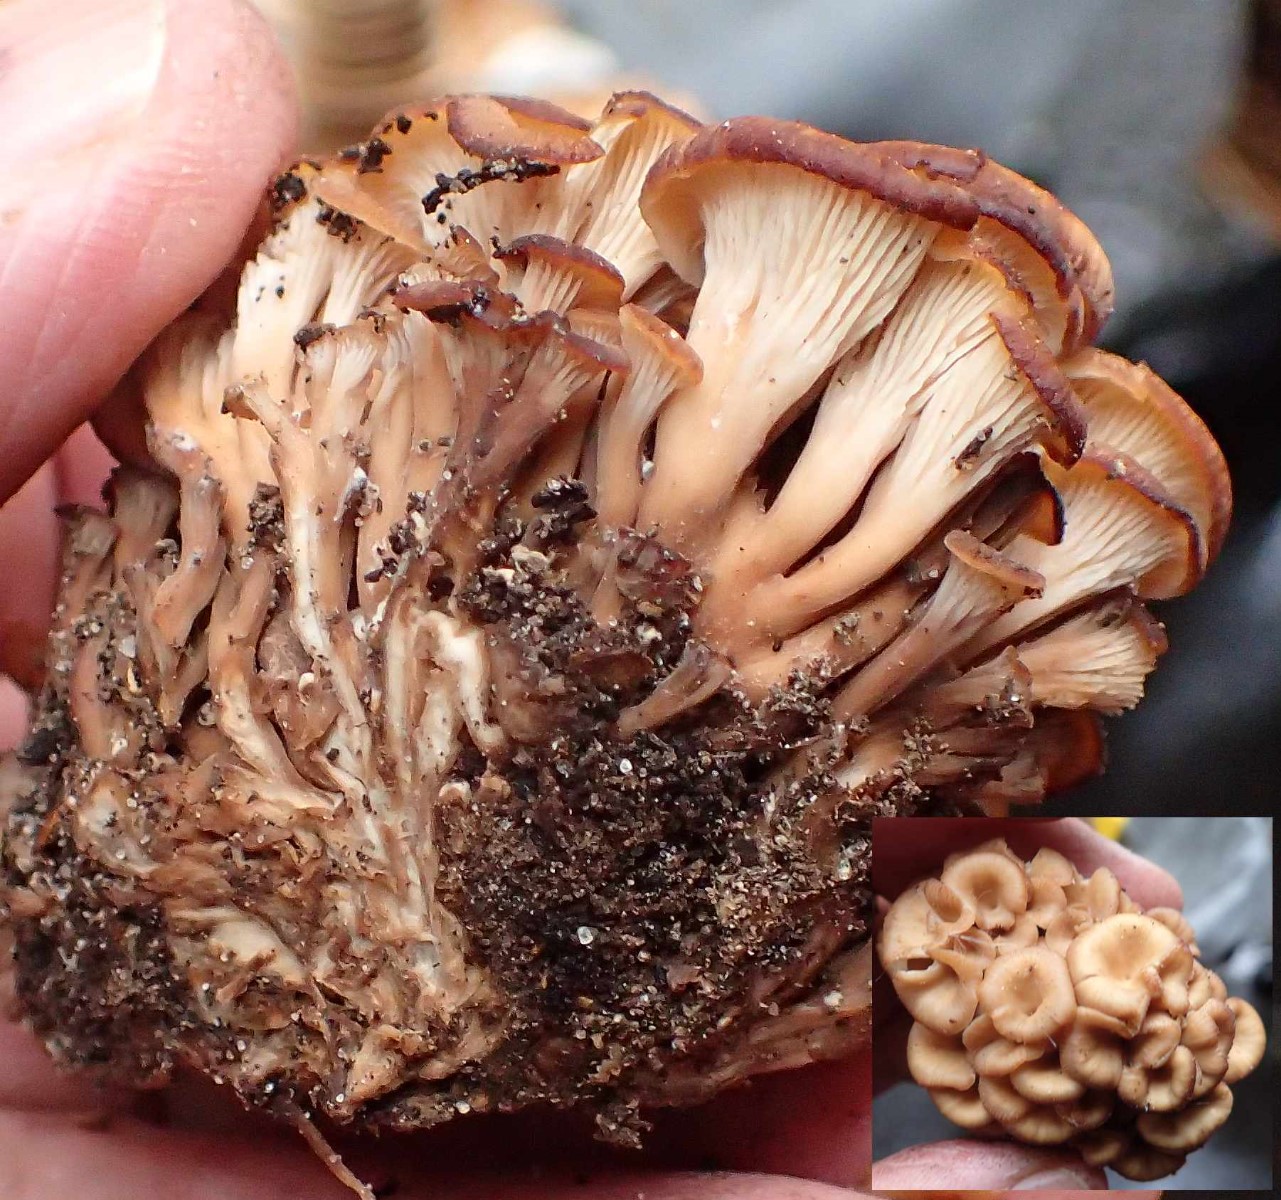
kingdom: Fungi
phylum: Basidiomycota
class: Agaricomycetes
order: Russulales
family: Auriscalpiaceae
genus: Lentinellus
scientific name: Lentinellus cochleatus
